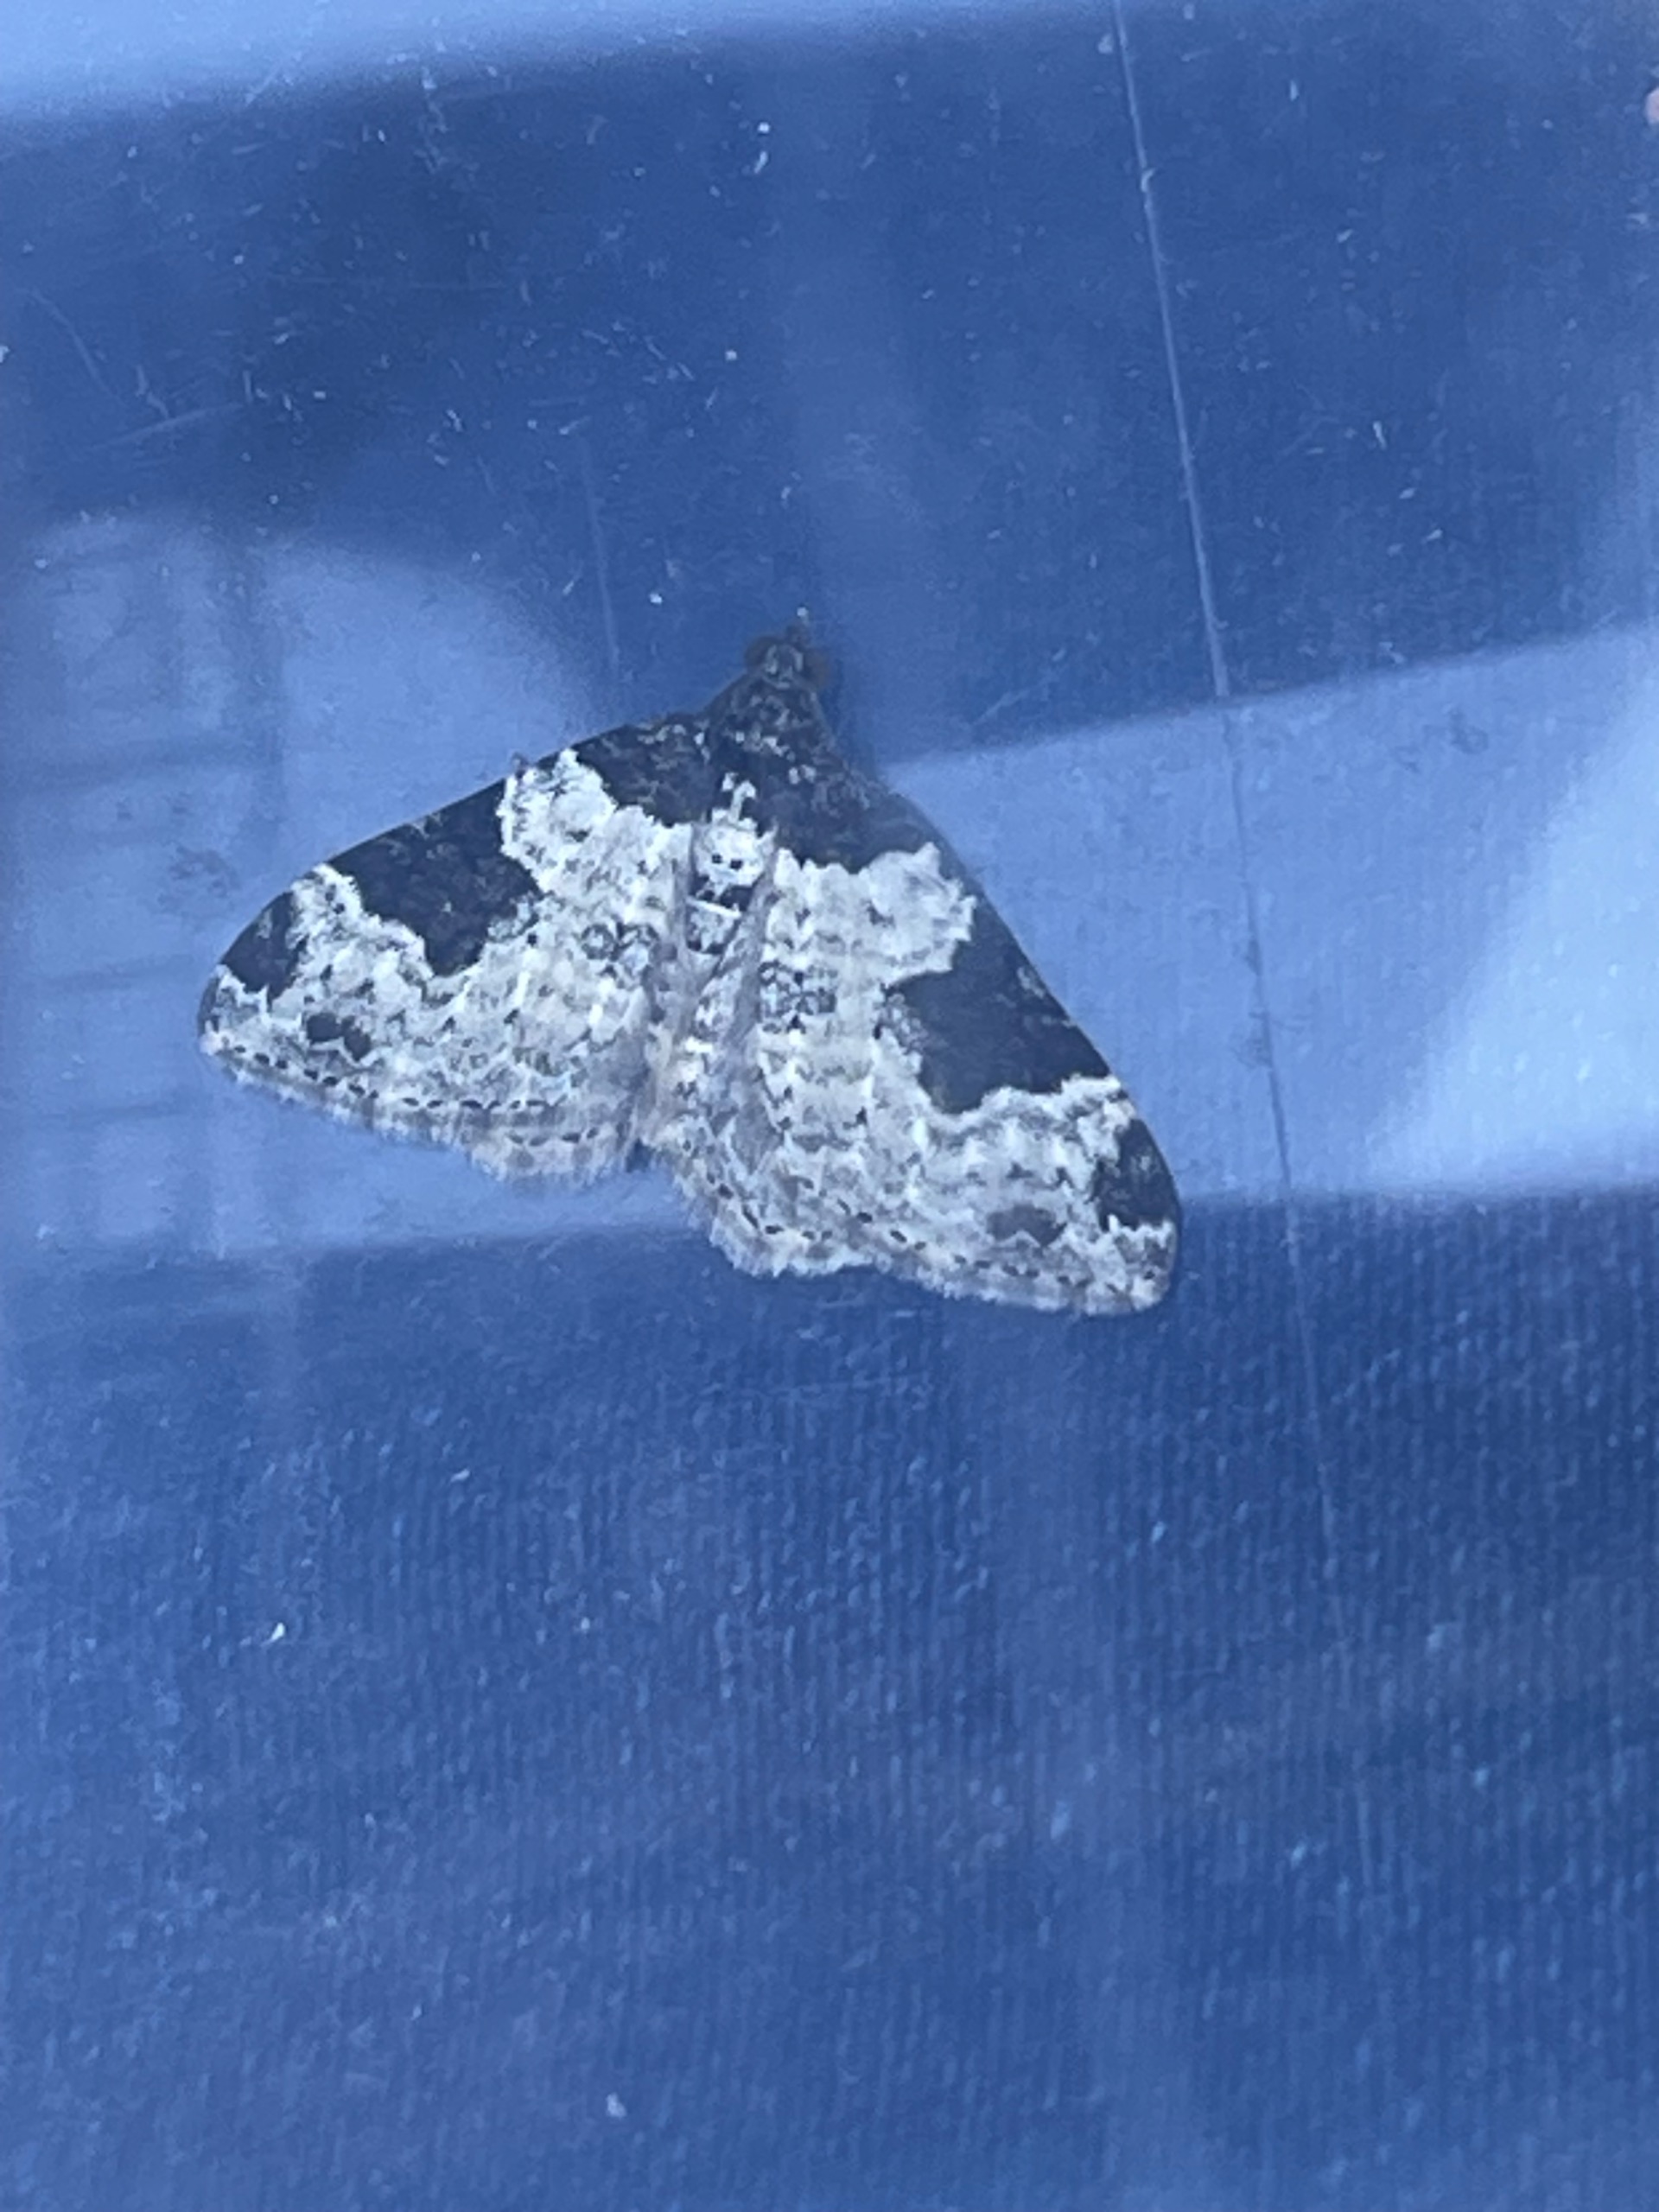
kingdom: Animalia
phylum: Arthropoda
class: Insecta
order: Lepidoptera
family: Geometridae
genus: Xanthorhoe
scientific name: Xanthorhoe fluctuata
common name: Sortbæltet bladmåler
